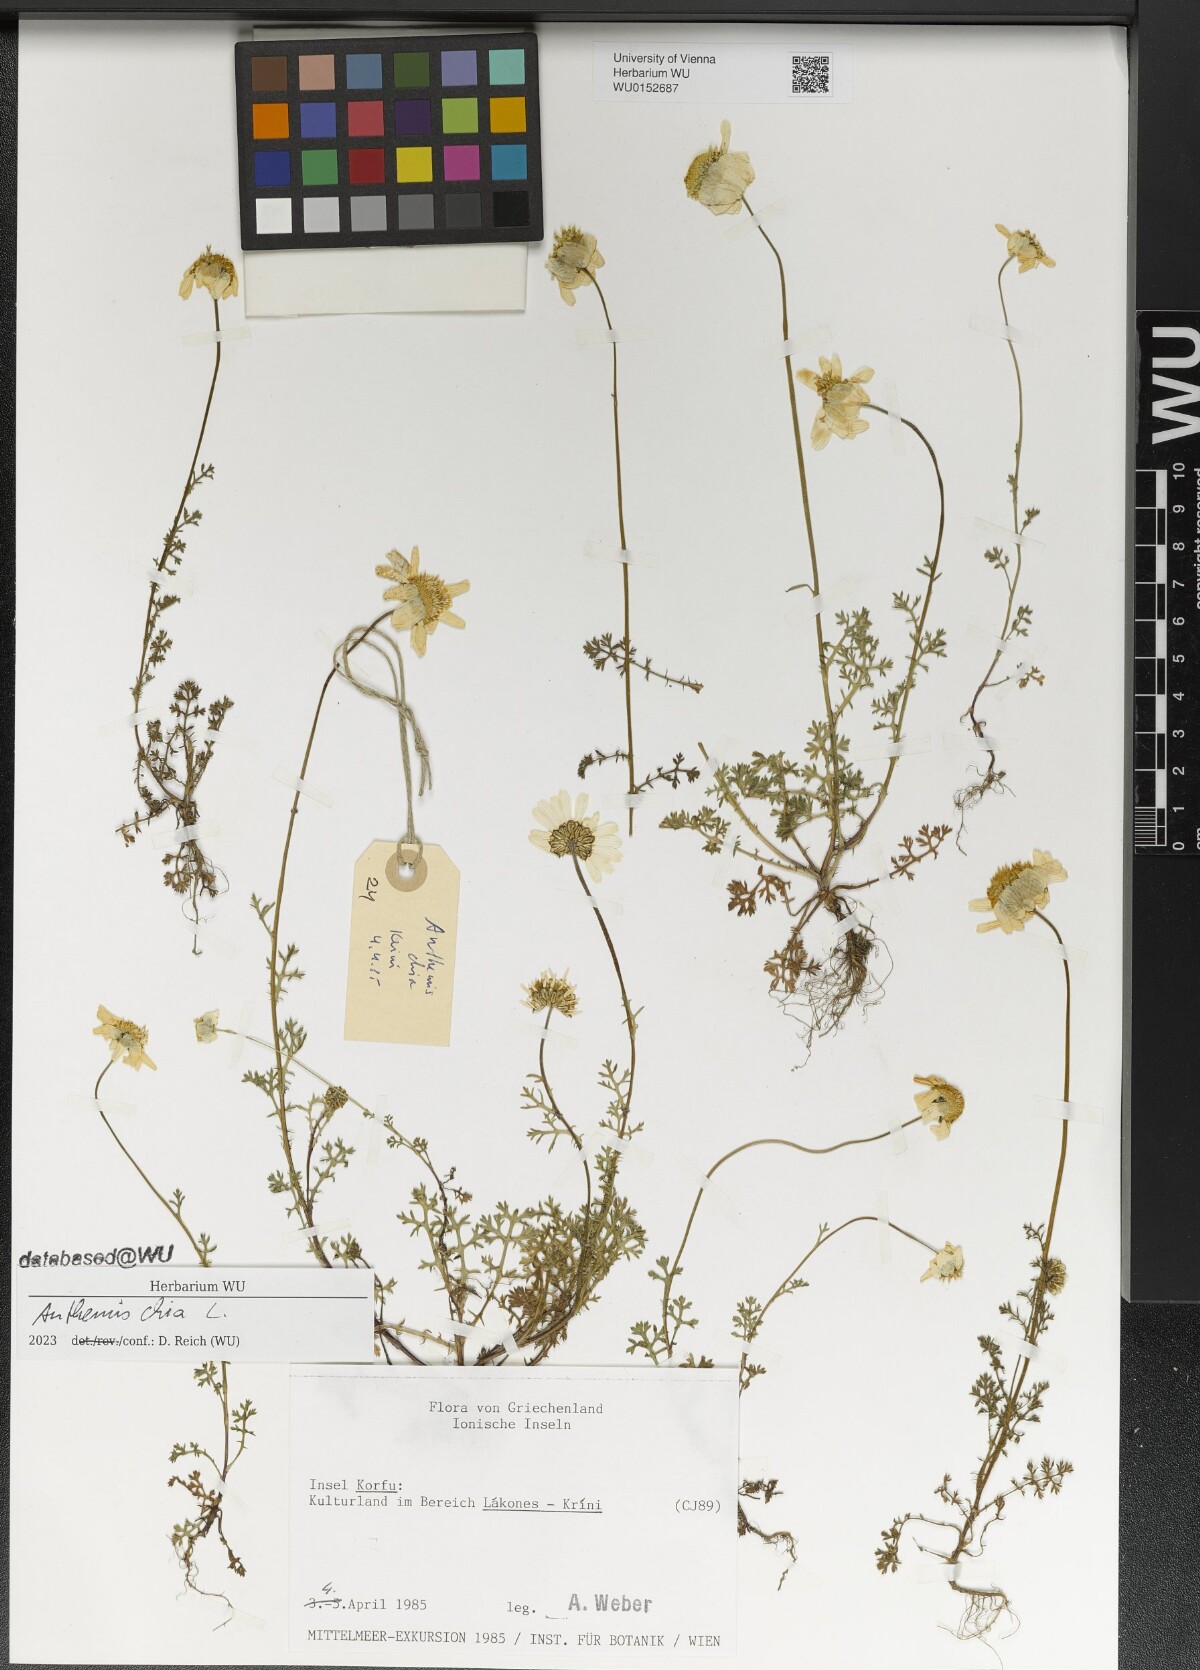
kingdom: Plantae
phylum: Tracheophyta
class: Magnoliopsida
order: Asterales
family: Asteraceae
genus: Anthemis
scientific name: Anthemis chia
